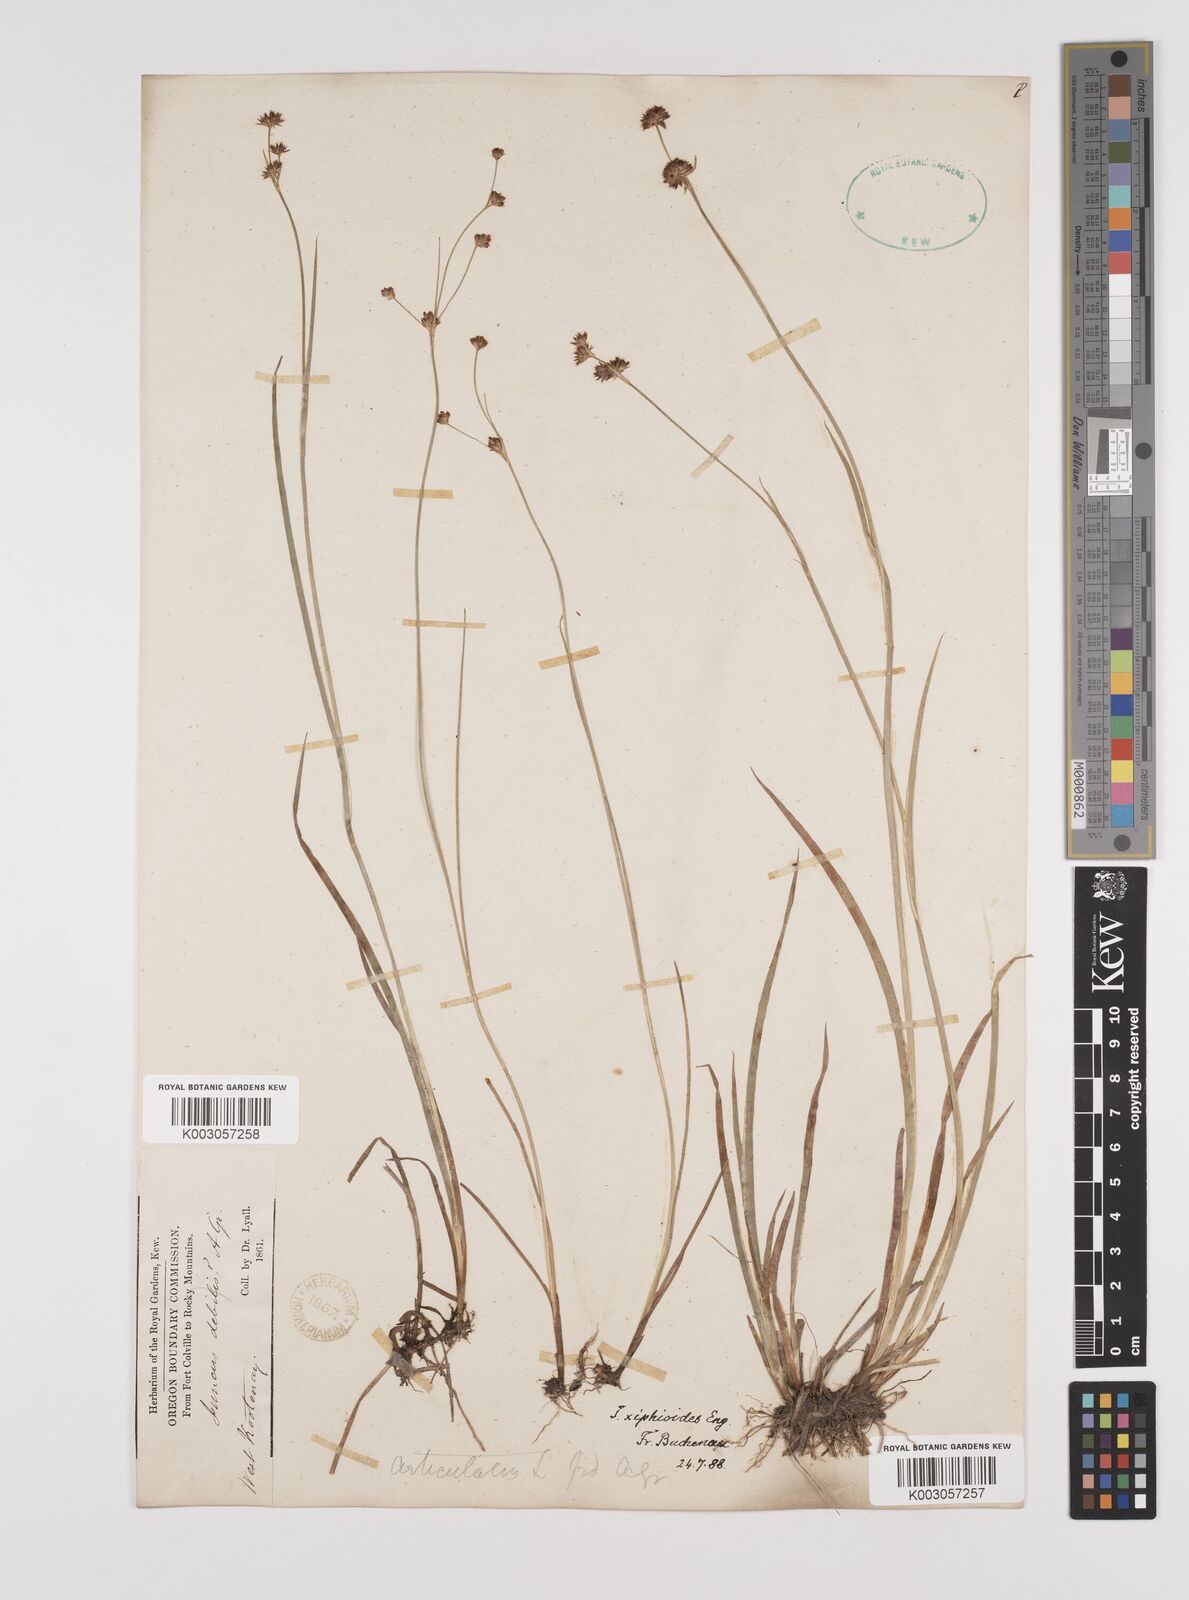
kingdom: Plantae
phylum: Tracheophyta
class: Liliopsida
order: Poales
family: Juncaceae
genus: Juncus
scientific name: Juncus xiphioides
